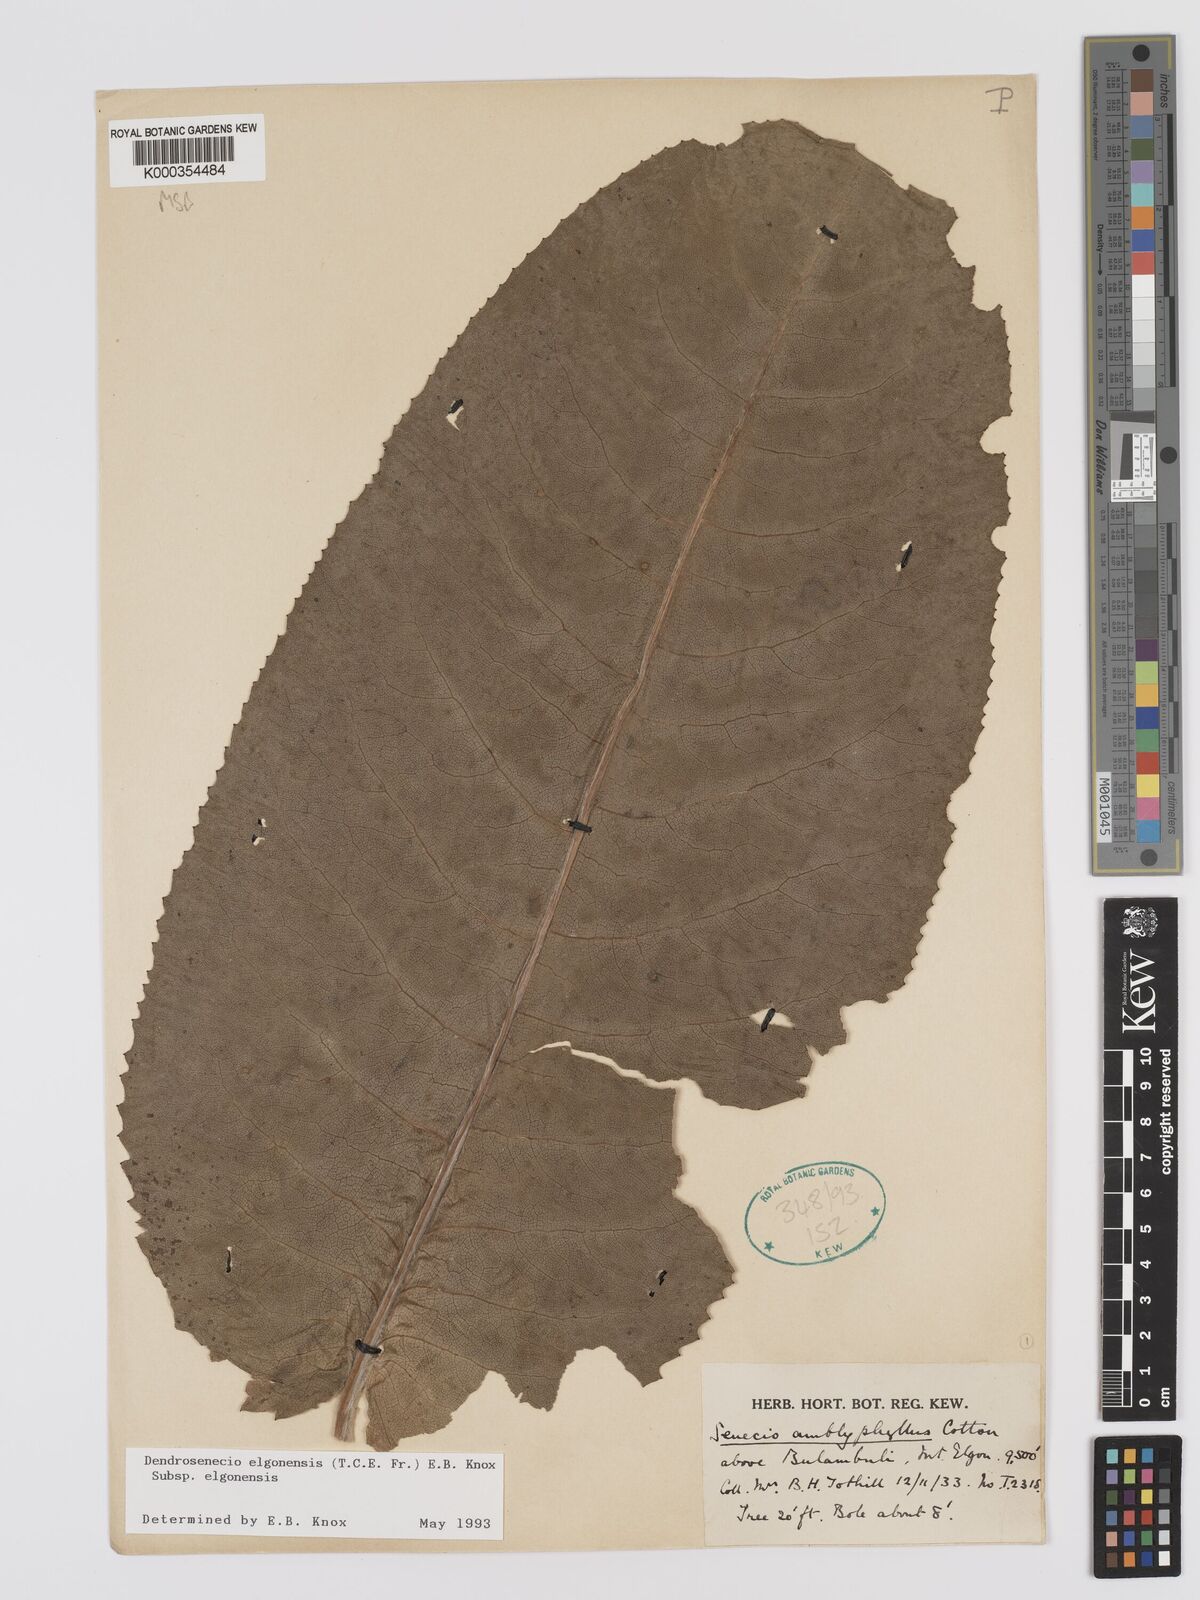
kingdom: Plantae
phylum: Tracheophyta
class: Magnoliopsida
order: Asterales
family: Asteraceae
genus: Dendrosenecio
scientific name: Dendrosenecio elgonensis
